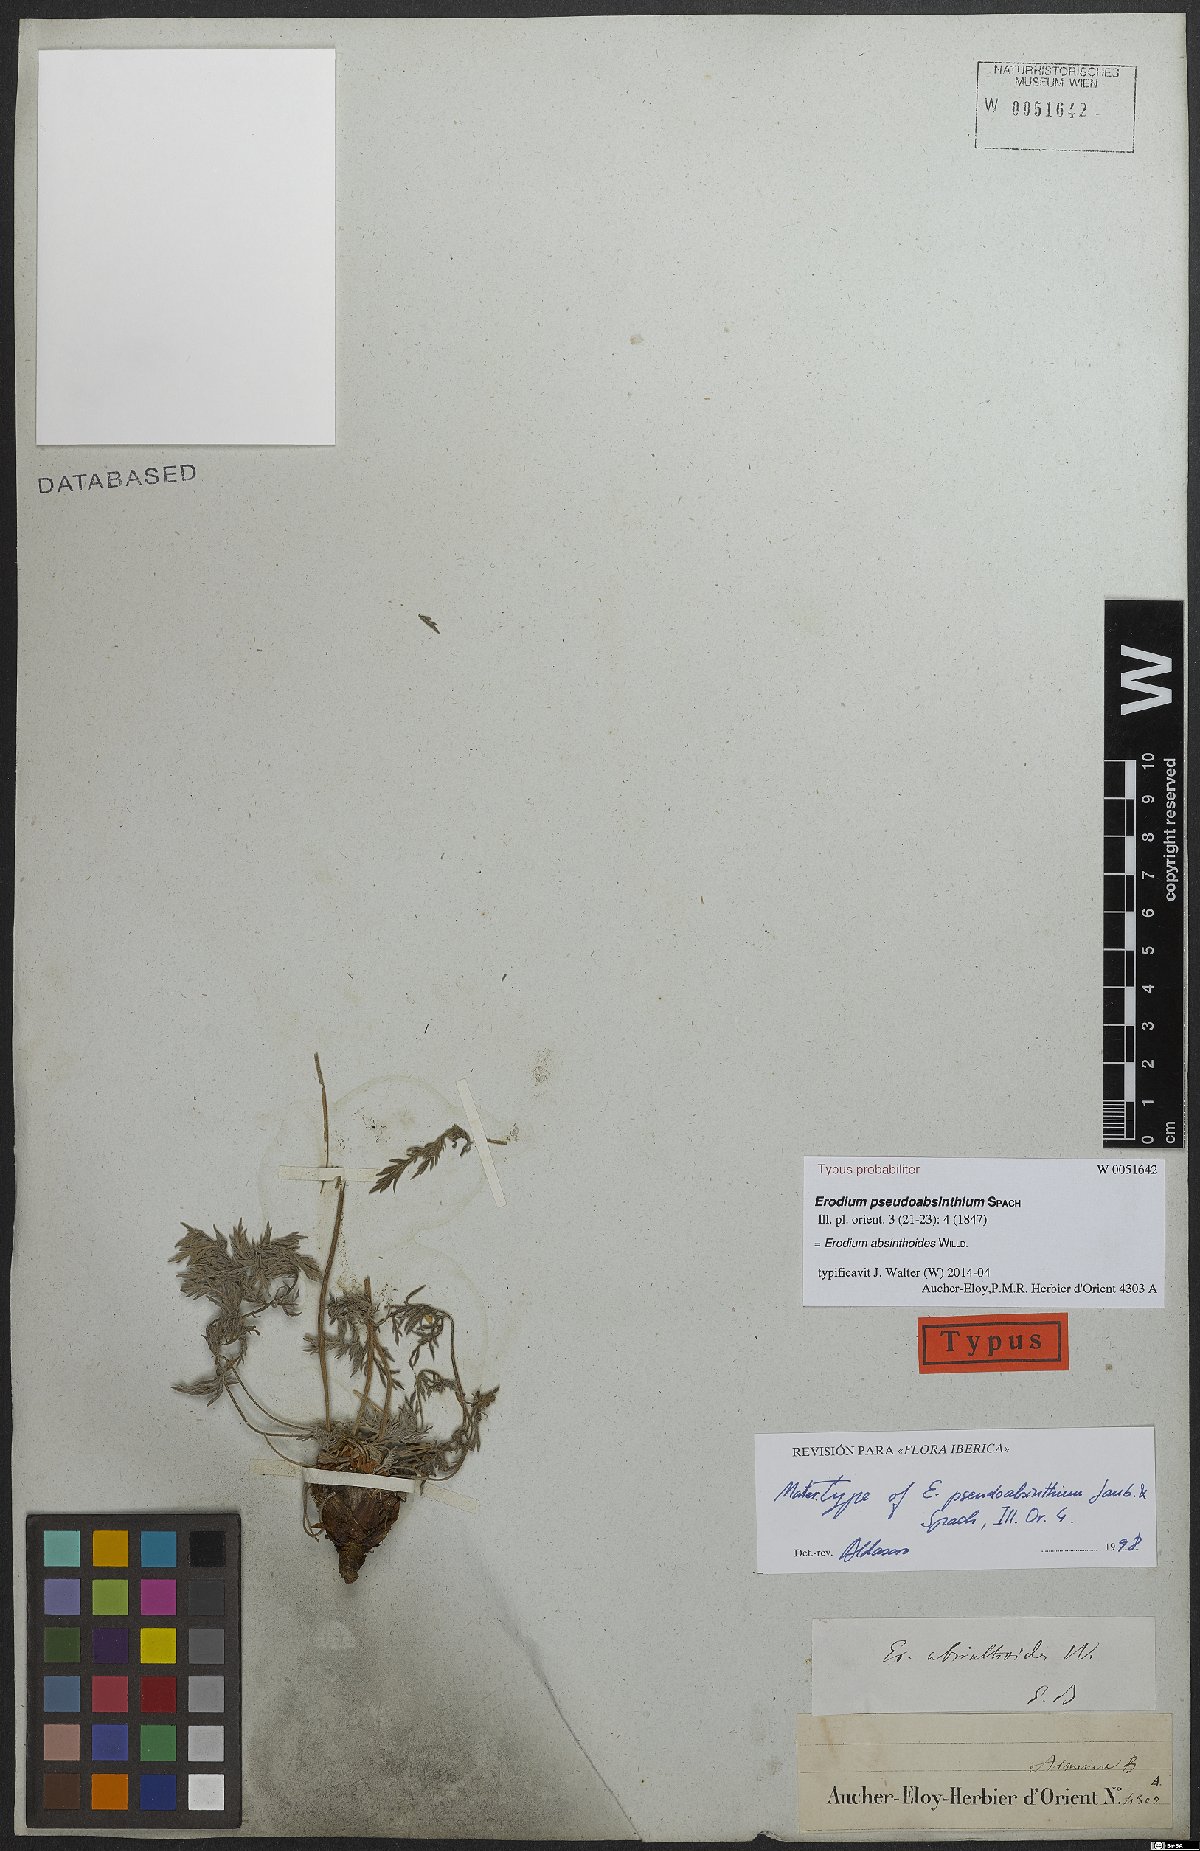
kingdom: Plantae
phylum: Tracheophyta
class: Magnoliopsida
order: Geraniales
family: Geraniaceae
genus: Erodium
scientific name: Erodium absinthoides
